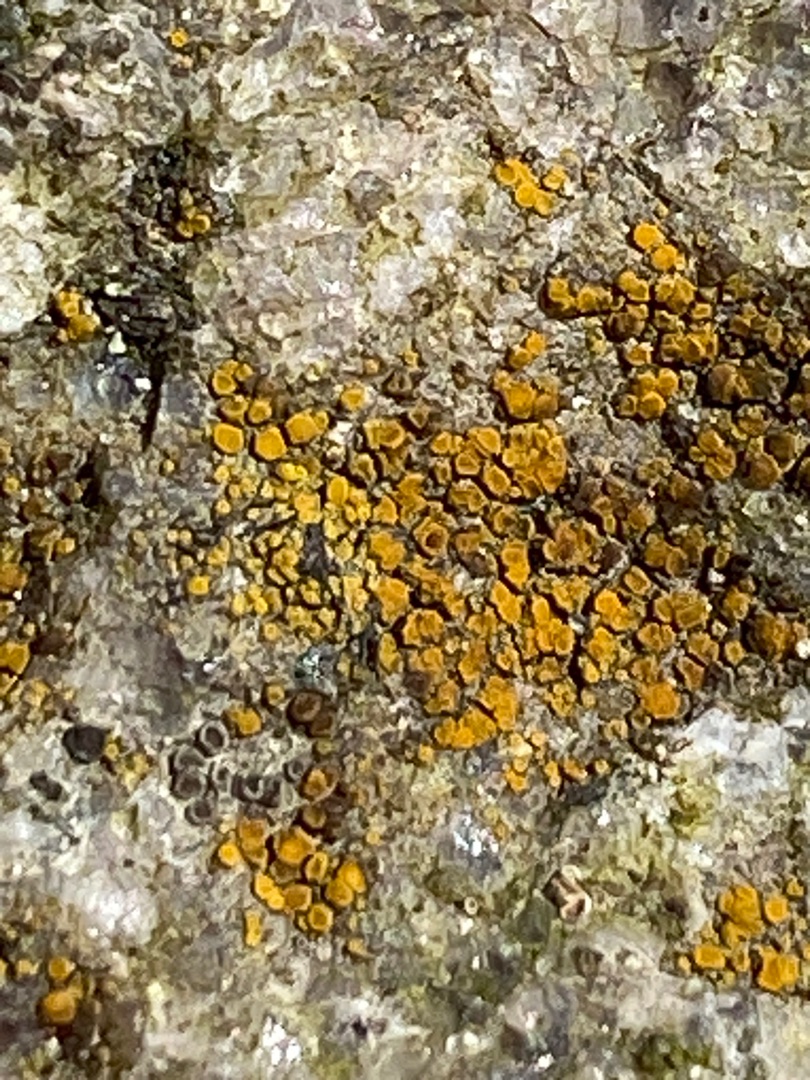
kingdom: Fungi
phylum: Ascomycota
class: Lecanoromycetes
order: Teloschistales
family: Teloschistaceae
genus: Athallia
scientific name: Athallia
